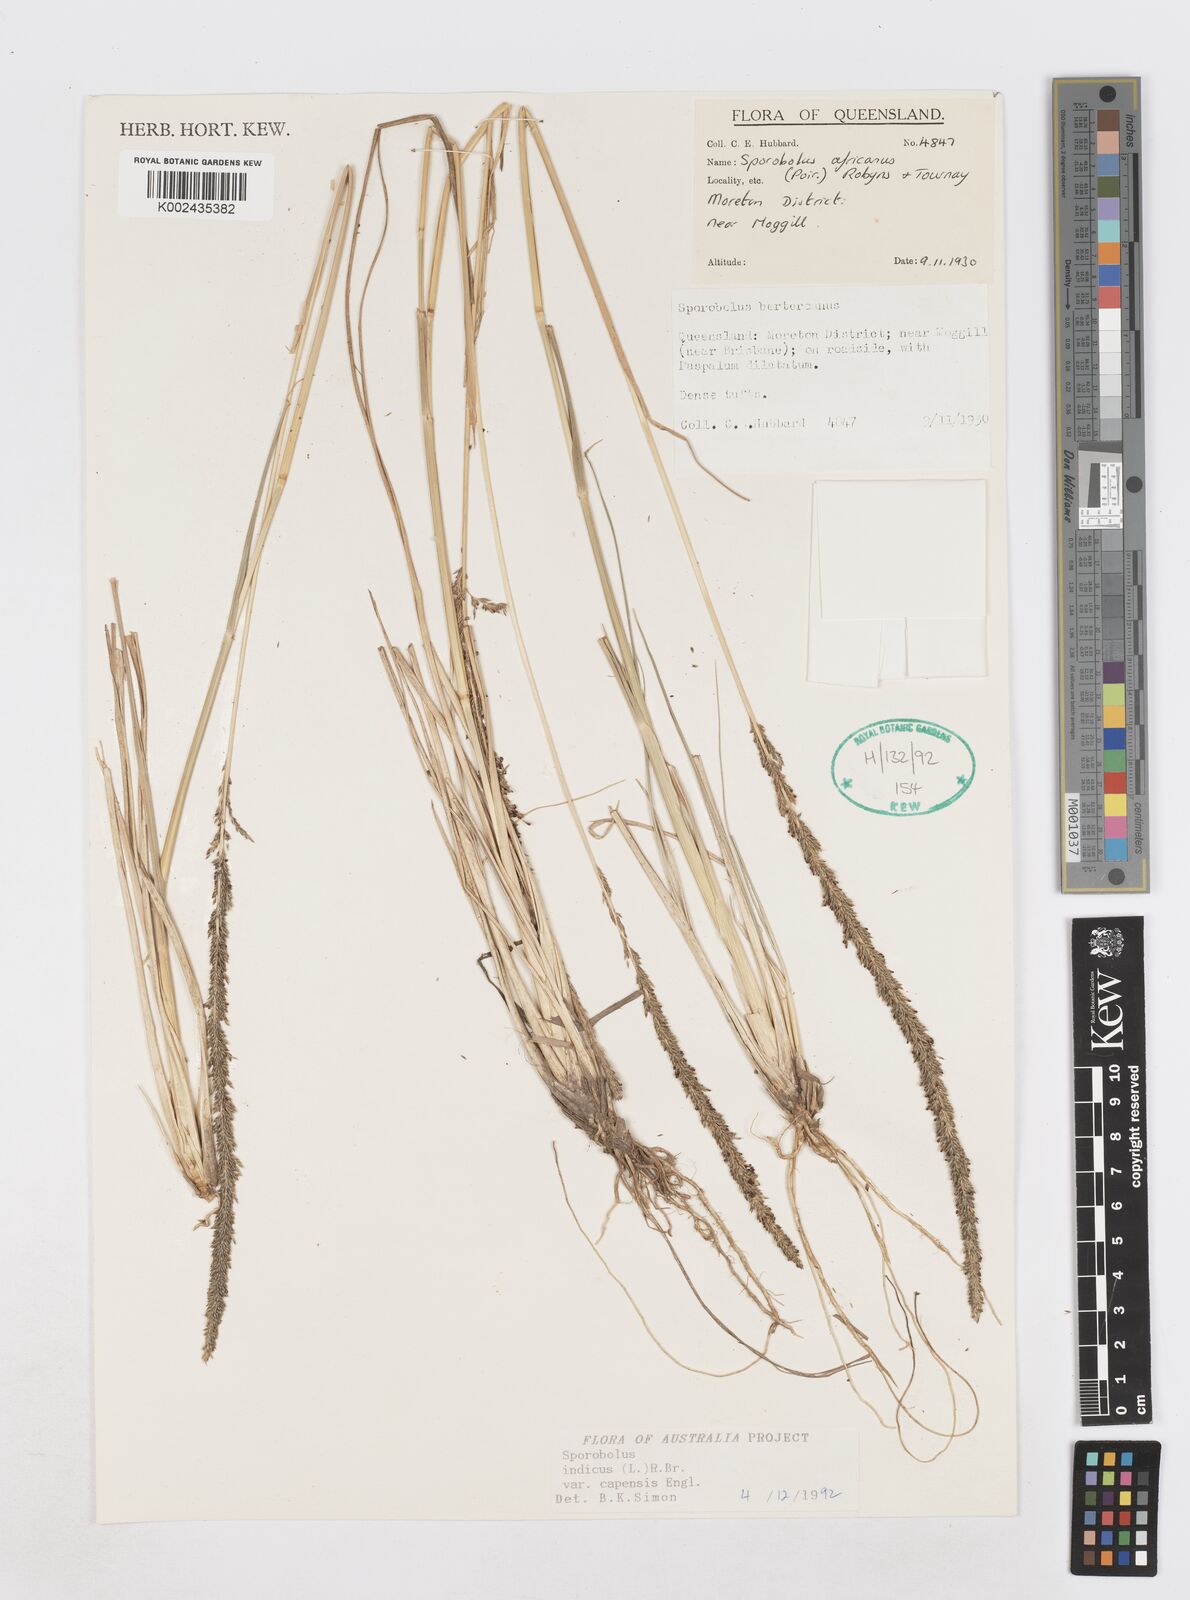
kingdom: Plantae
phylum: Tracheophyta
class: Liliopsida
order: Poales
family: Poaceae
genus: Sporobolus
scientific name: Sporobolus africanus
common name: African dropseed
